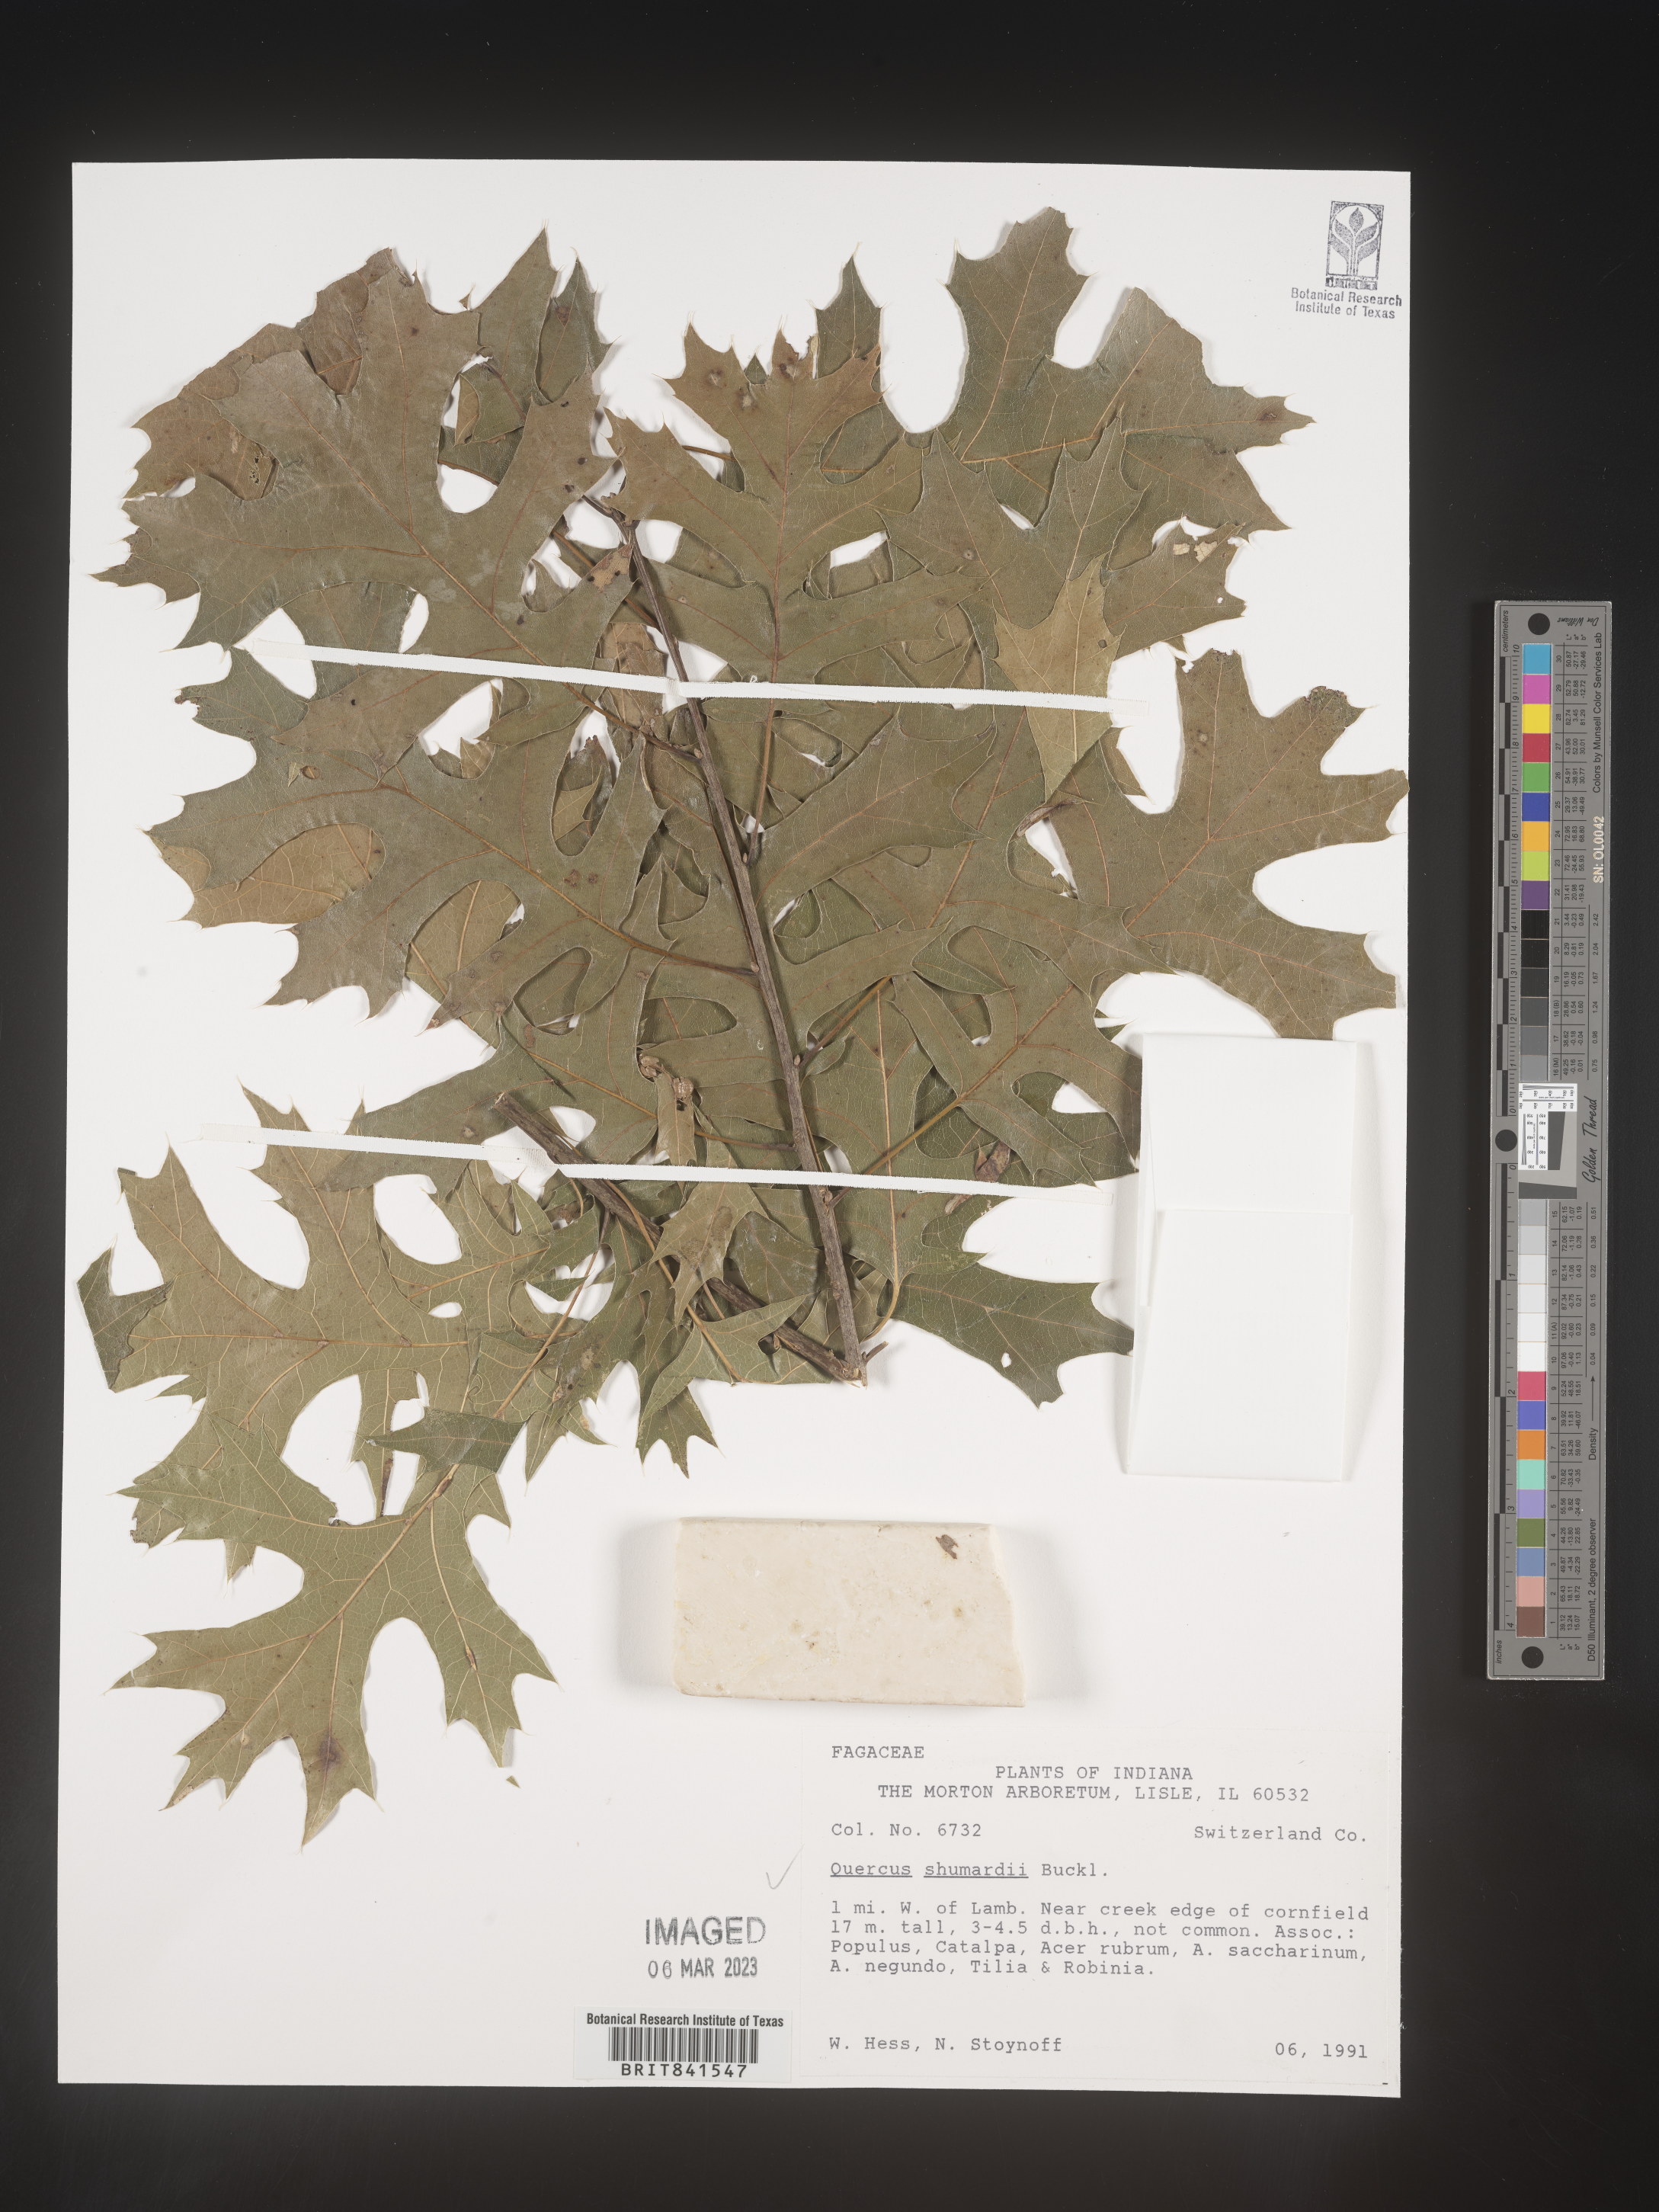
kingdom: Plantae
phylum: Tracheophyta
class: Magnoliopsida
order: Fagales
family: Fagaceae
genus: Quercus
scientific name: Quercus shumardii
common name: Shumard oak
